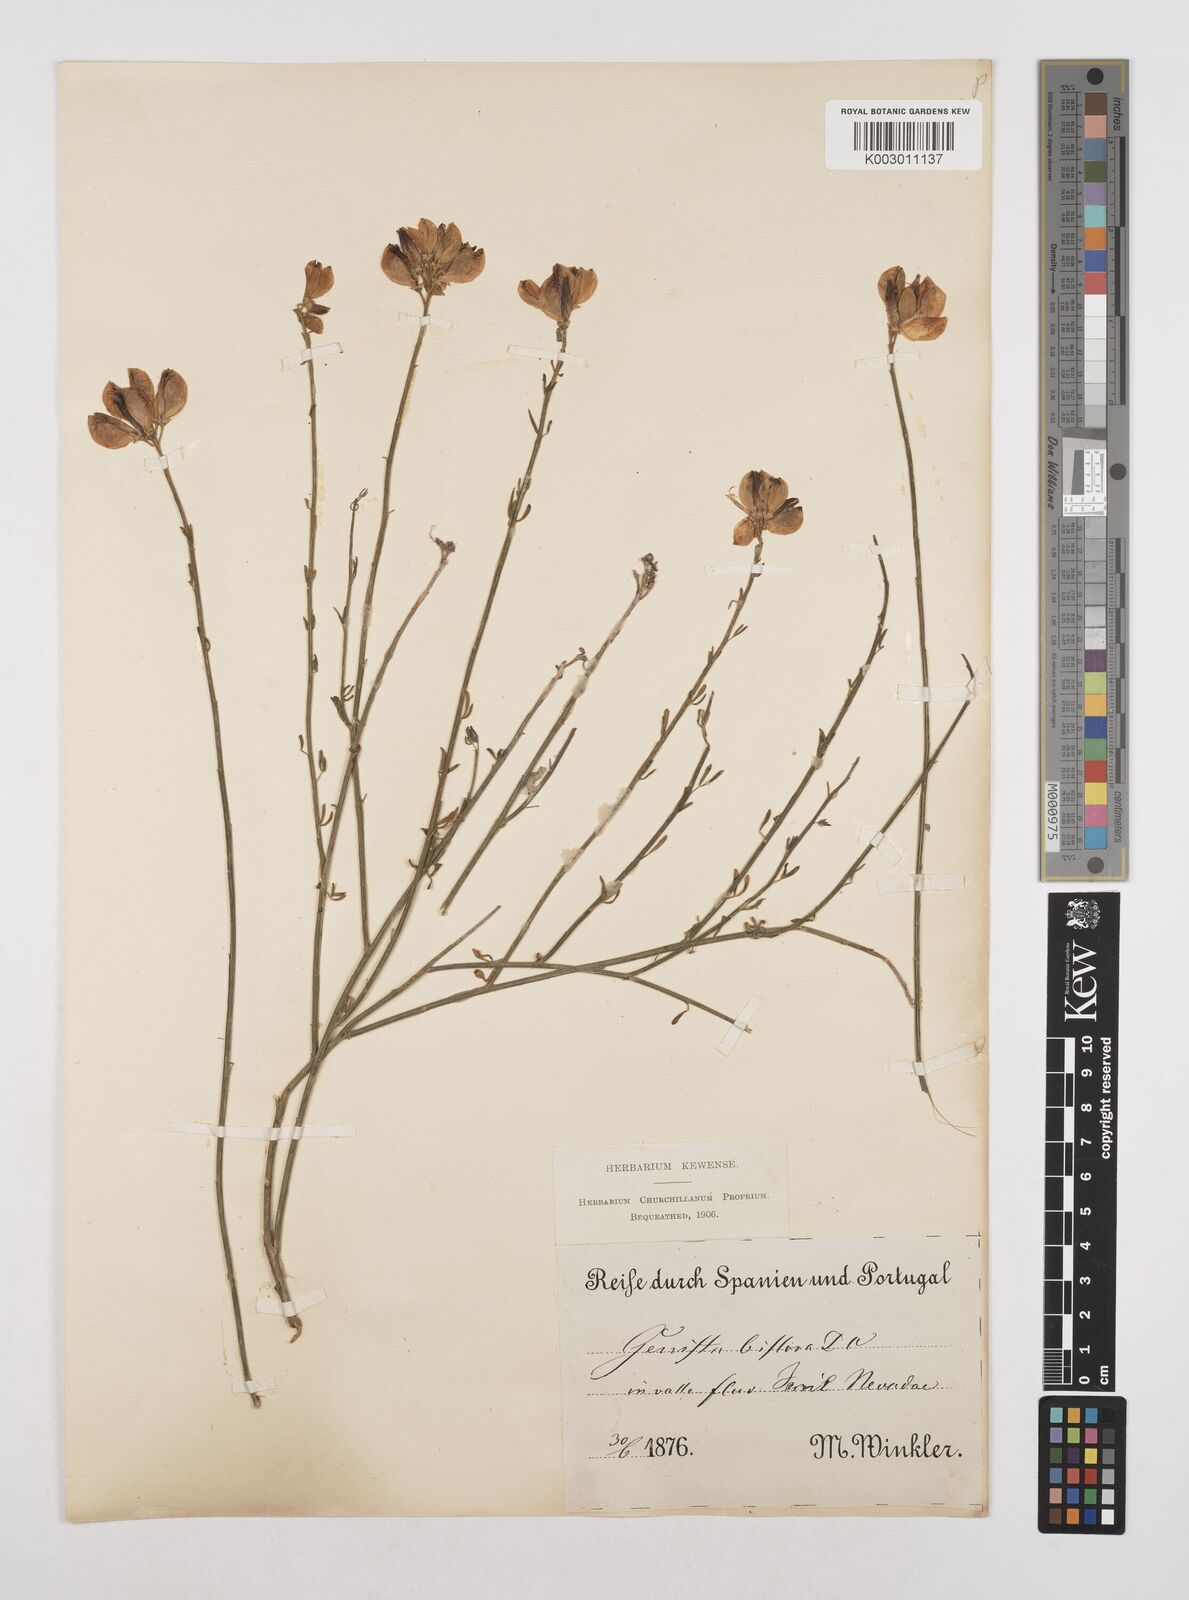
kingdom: Plantae
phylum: Tracheophyta
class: Magnoliopsida
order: Fabales
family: Fabaceae
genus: Cytisus
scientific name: Cytisus fontanesii
